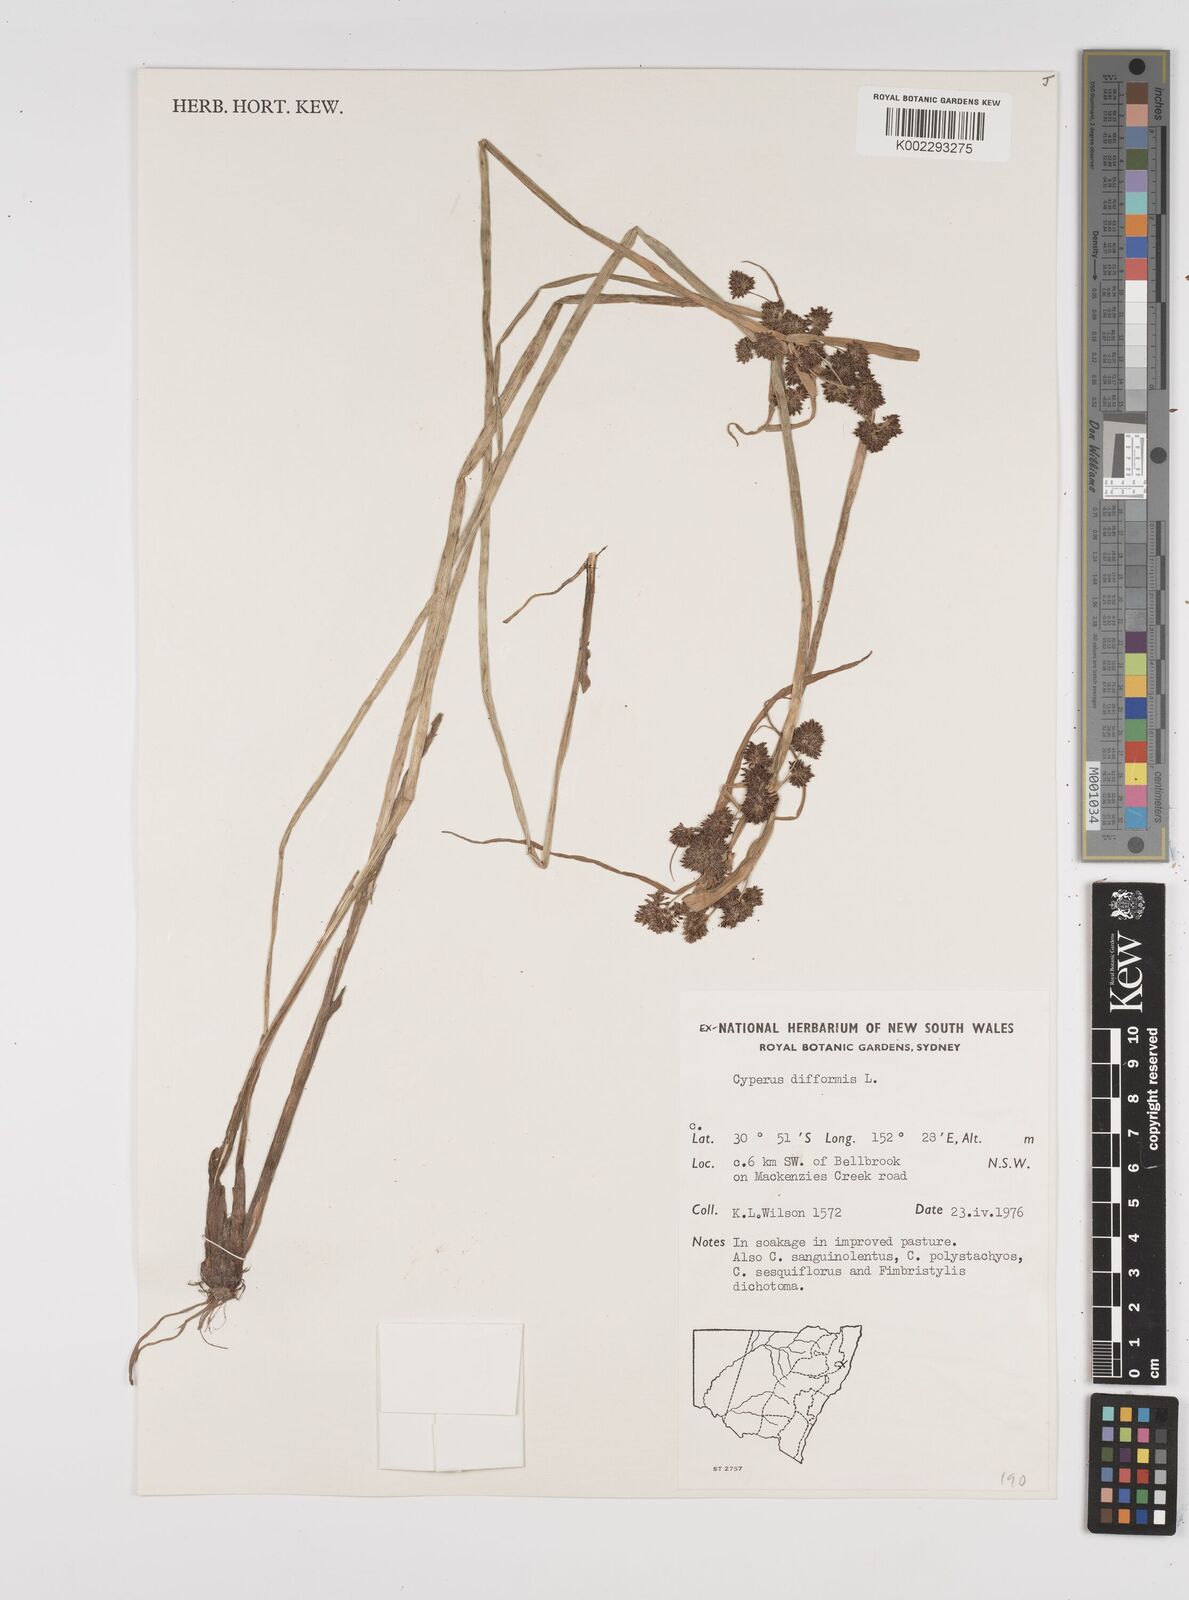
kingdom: Plantae
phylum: Tracheophyta
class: Liliopsida
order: Poales
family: Cyperaceae
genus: Cyperus
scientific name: Cyperus difformis
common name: Variable flatsedge
